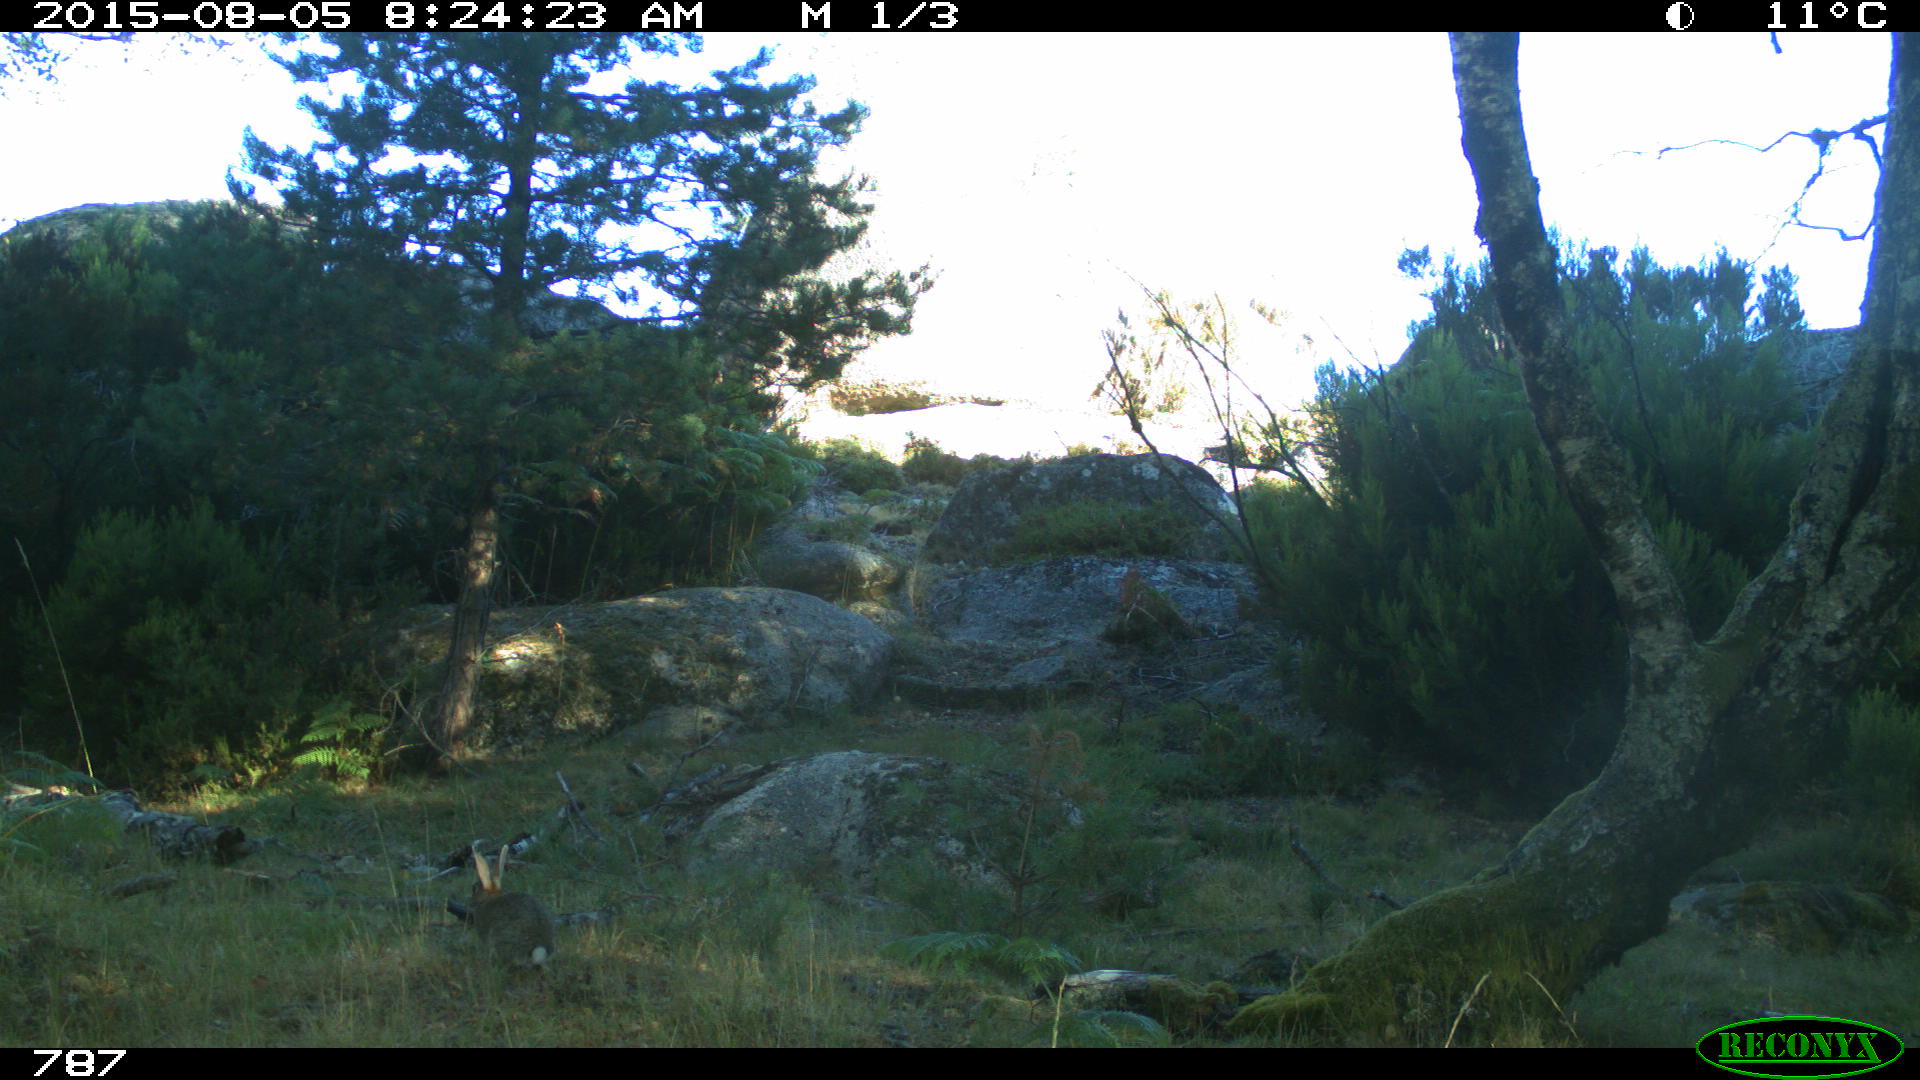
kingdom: Animalia
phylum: Chordata
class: Mammalia
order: Lagomorpha
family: Leporidae
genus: Oryctolagus
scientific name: Oryctolagus cuniculus
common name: European rabbit
